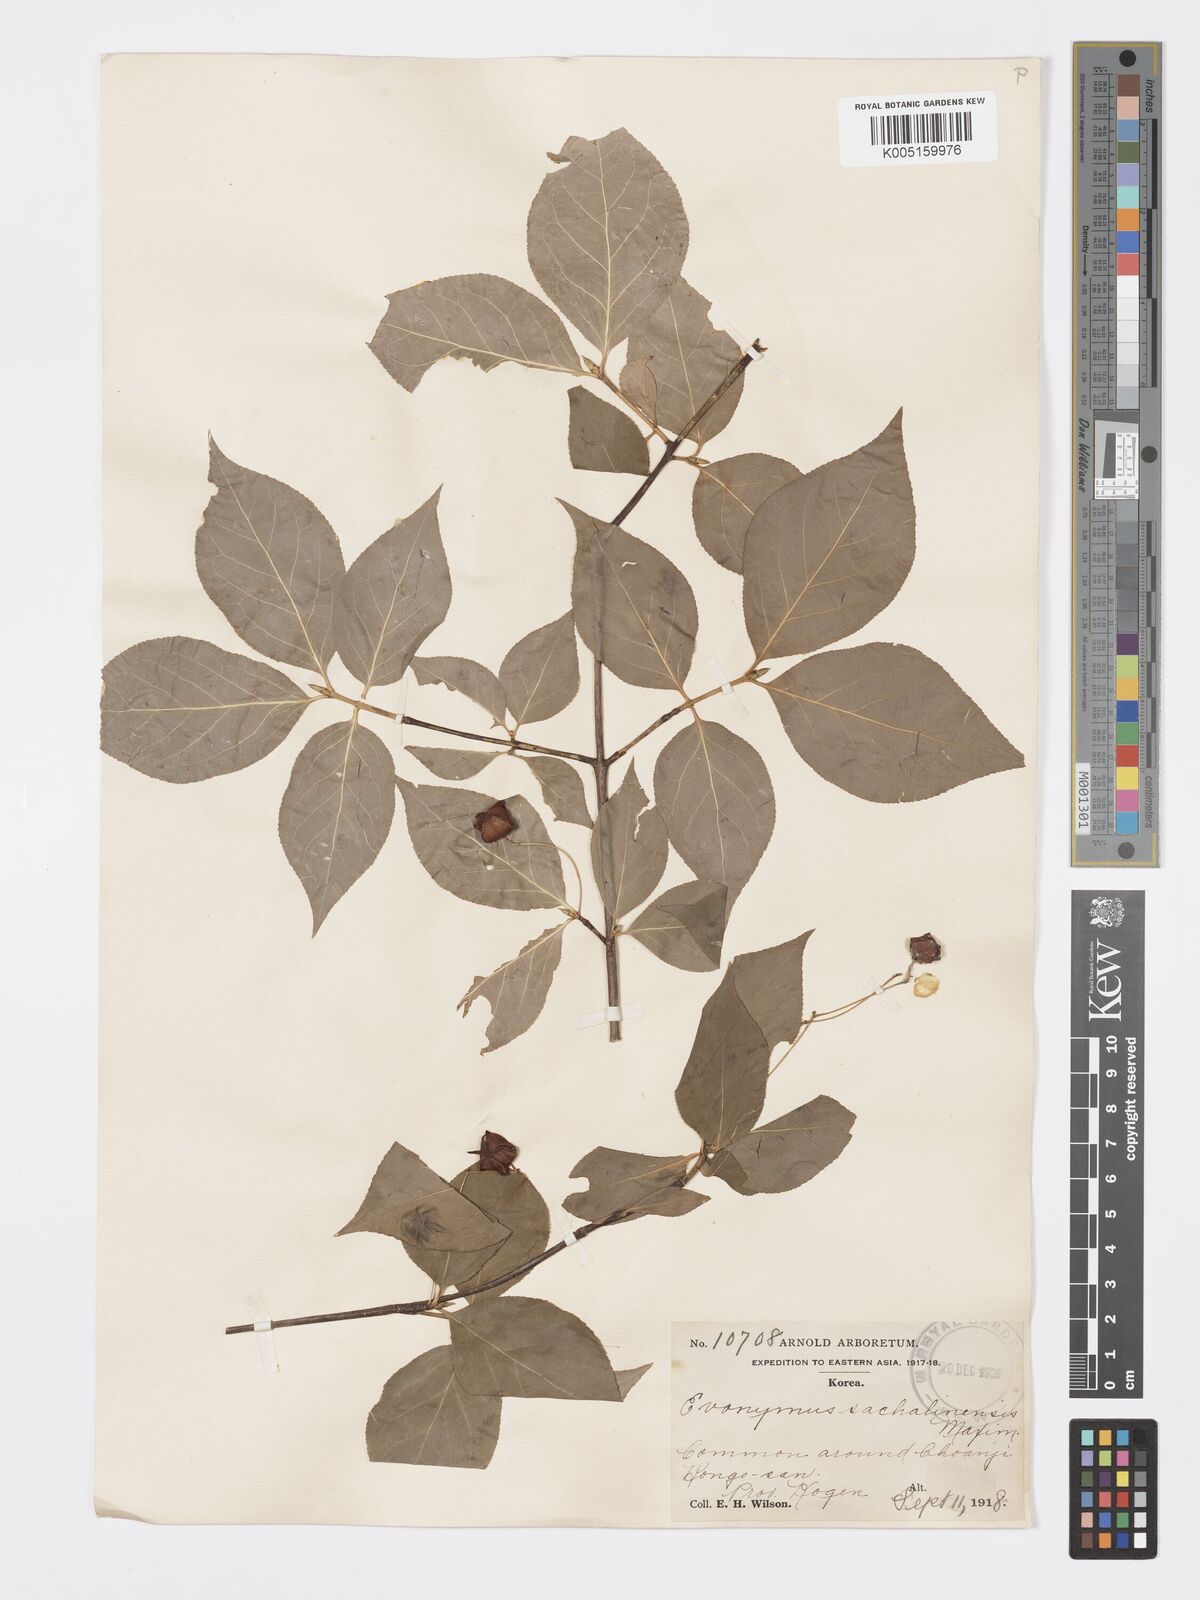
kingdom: Plantae
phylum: Tracheophyta
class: Magnoliopsida
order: Celastrales
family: Celastraceae
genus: Euonymus
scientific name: Euonymus sachalinensis
